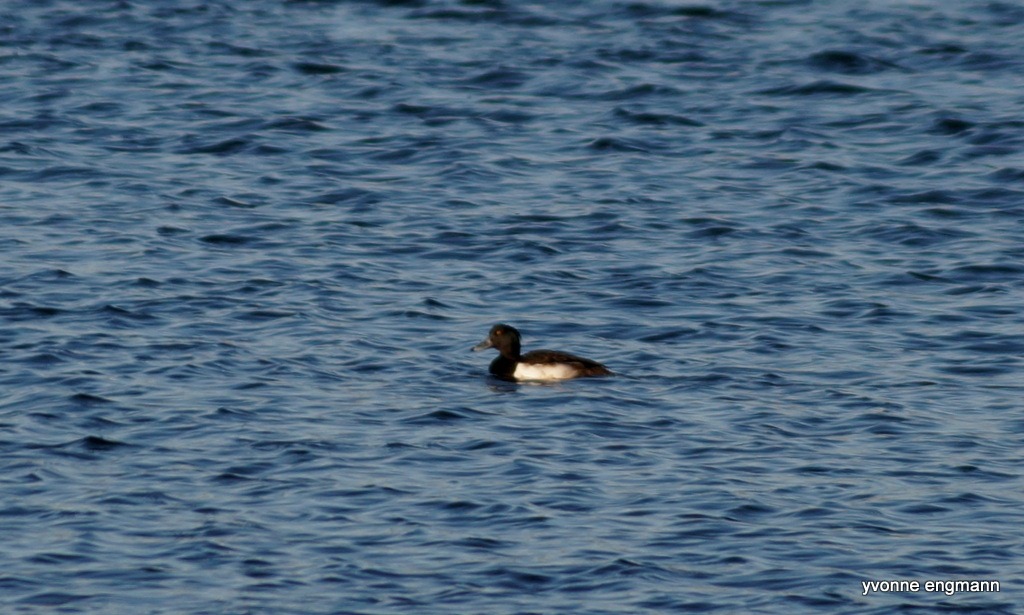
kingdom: Animalia
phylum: Chordata
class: Aves
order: Anseriformes
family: Anatidae
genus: Aythya
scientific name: Aythya fuligula
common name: Troldand
